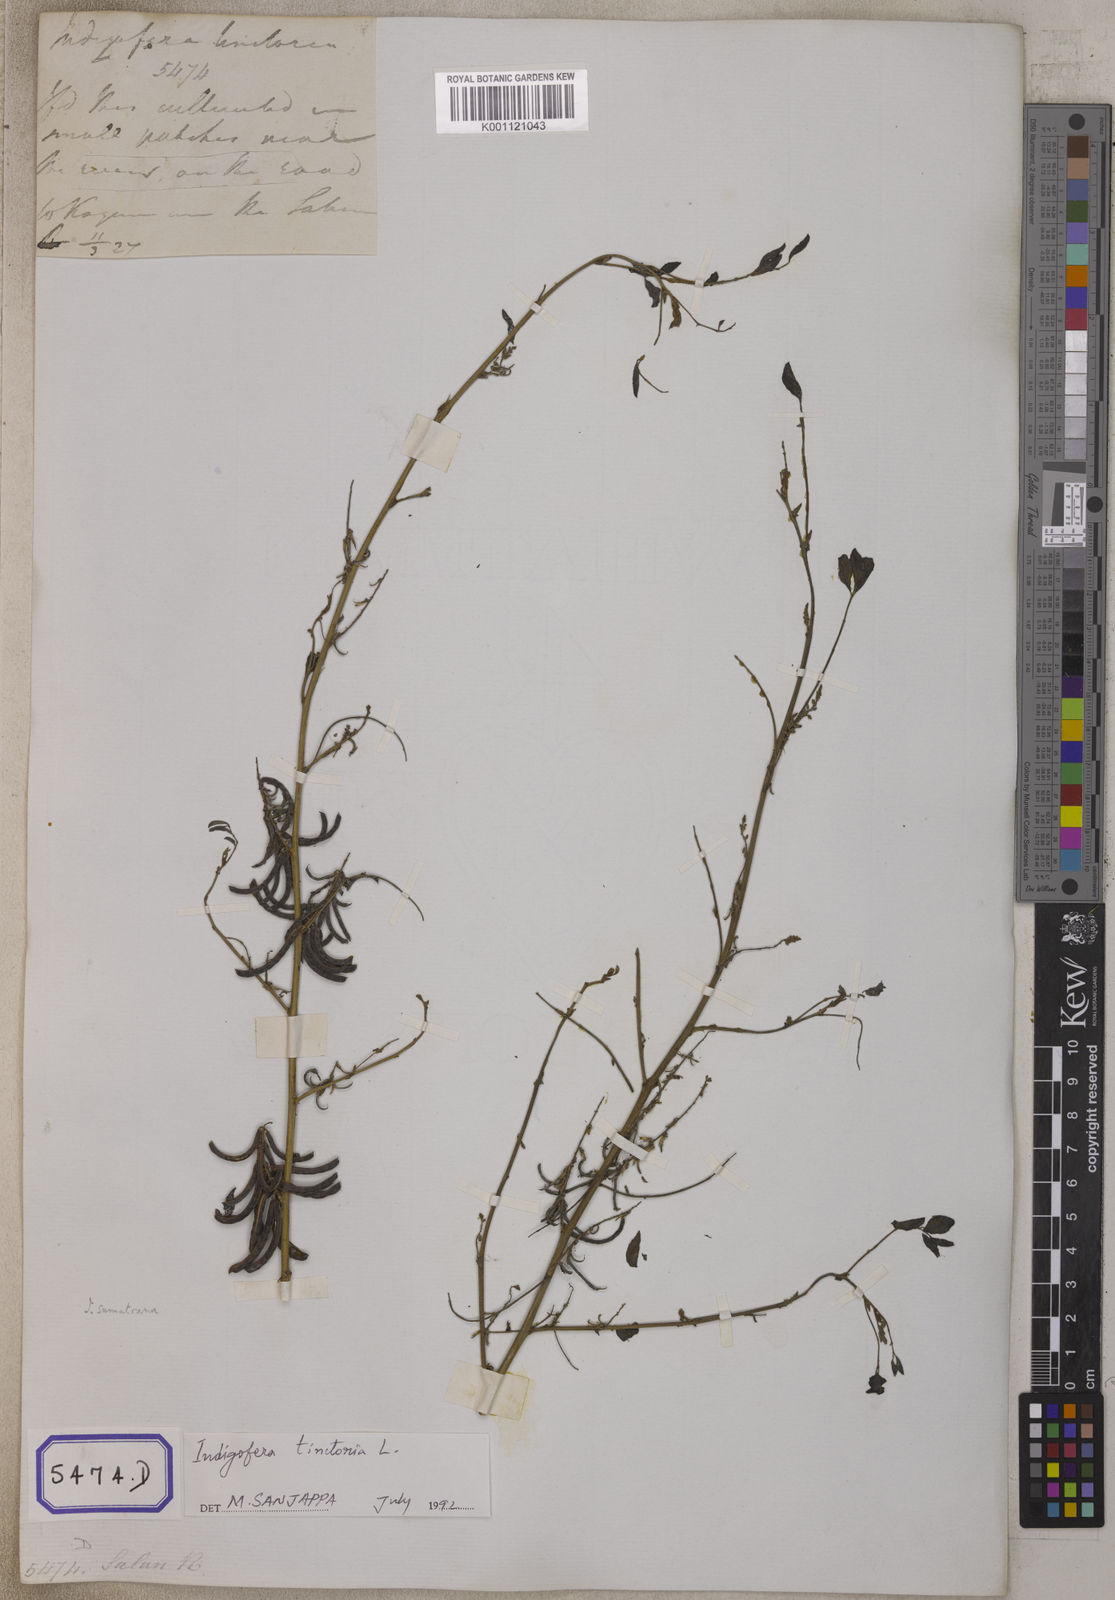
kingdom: Plantae
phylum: Tracheophyta
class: Magnoliopsida
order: Fabales
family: Fabaceae
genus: Indigofera
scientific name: Indigofera tinctoria
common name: True indigo
